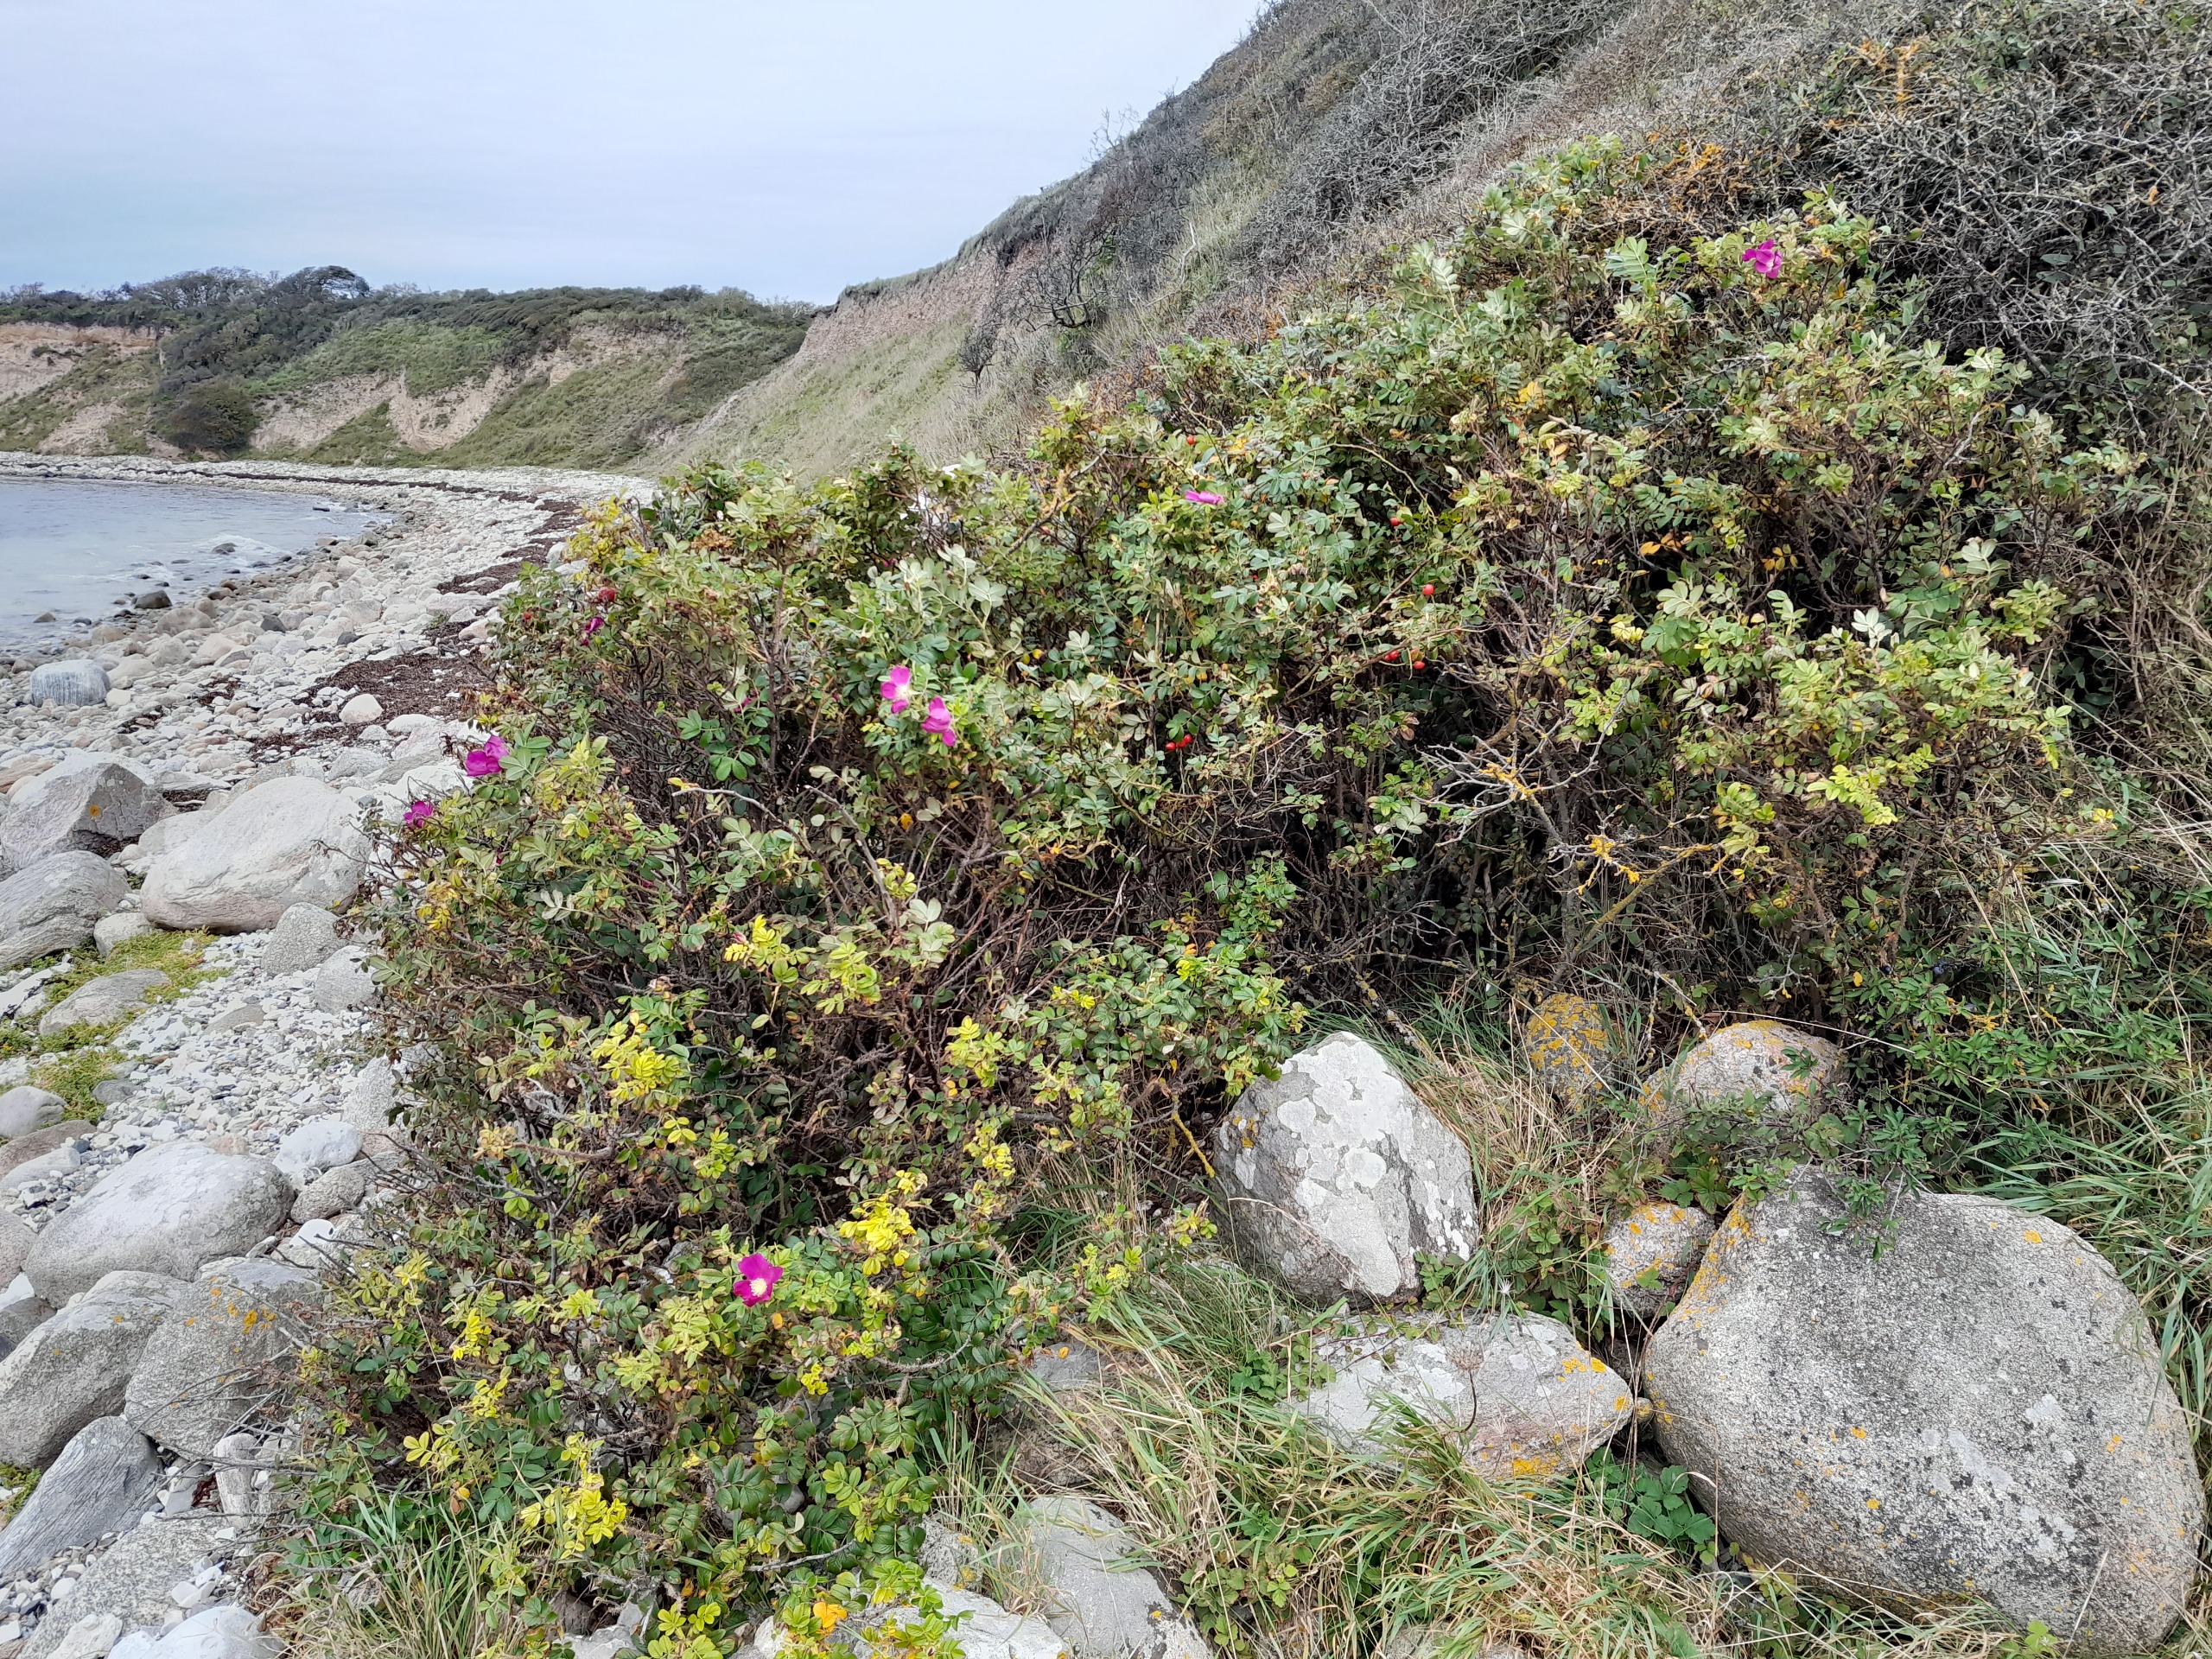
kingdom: Plantae
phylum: Tracheophyta
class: Magnoliopsida
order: Rosales
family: Rosaceae
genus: Rosa
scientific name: Rosa rugosa
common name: Rynket rose
